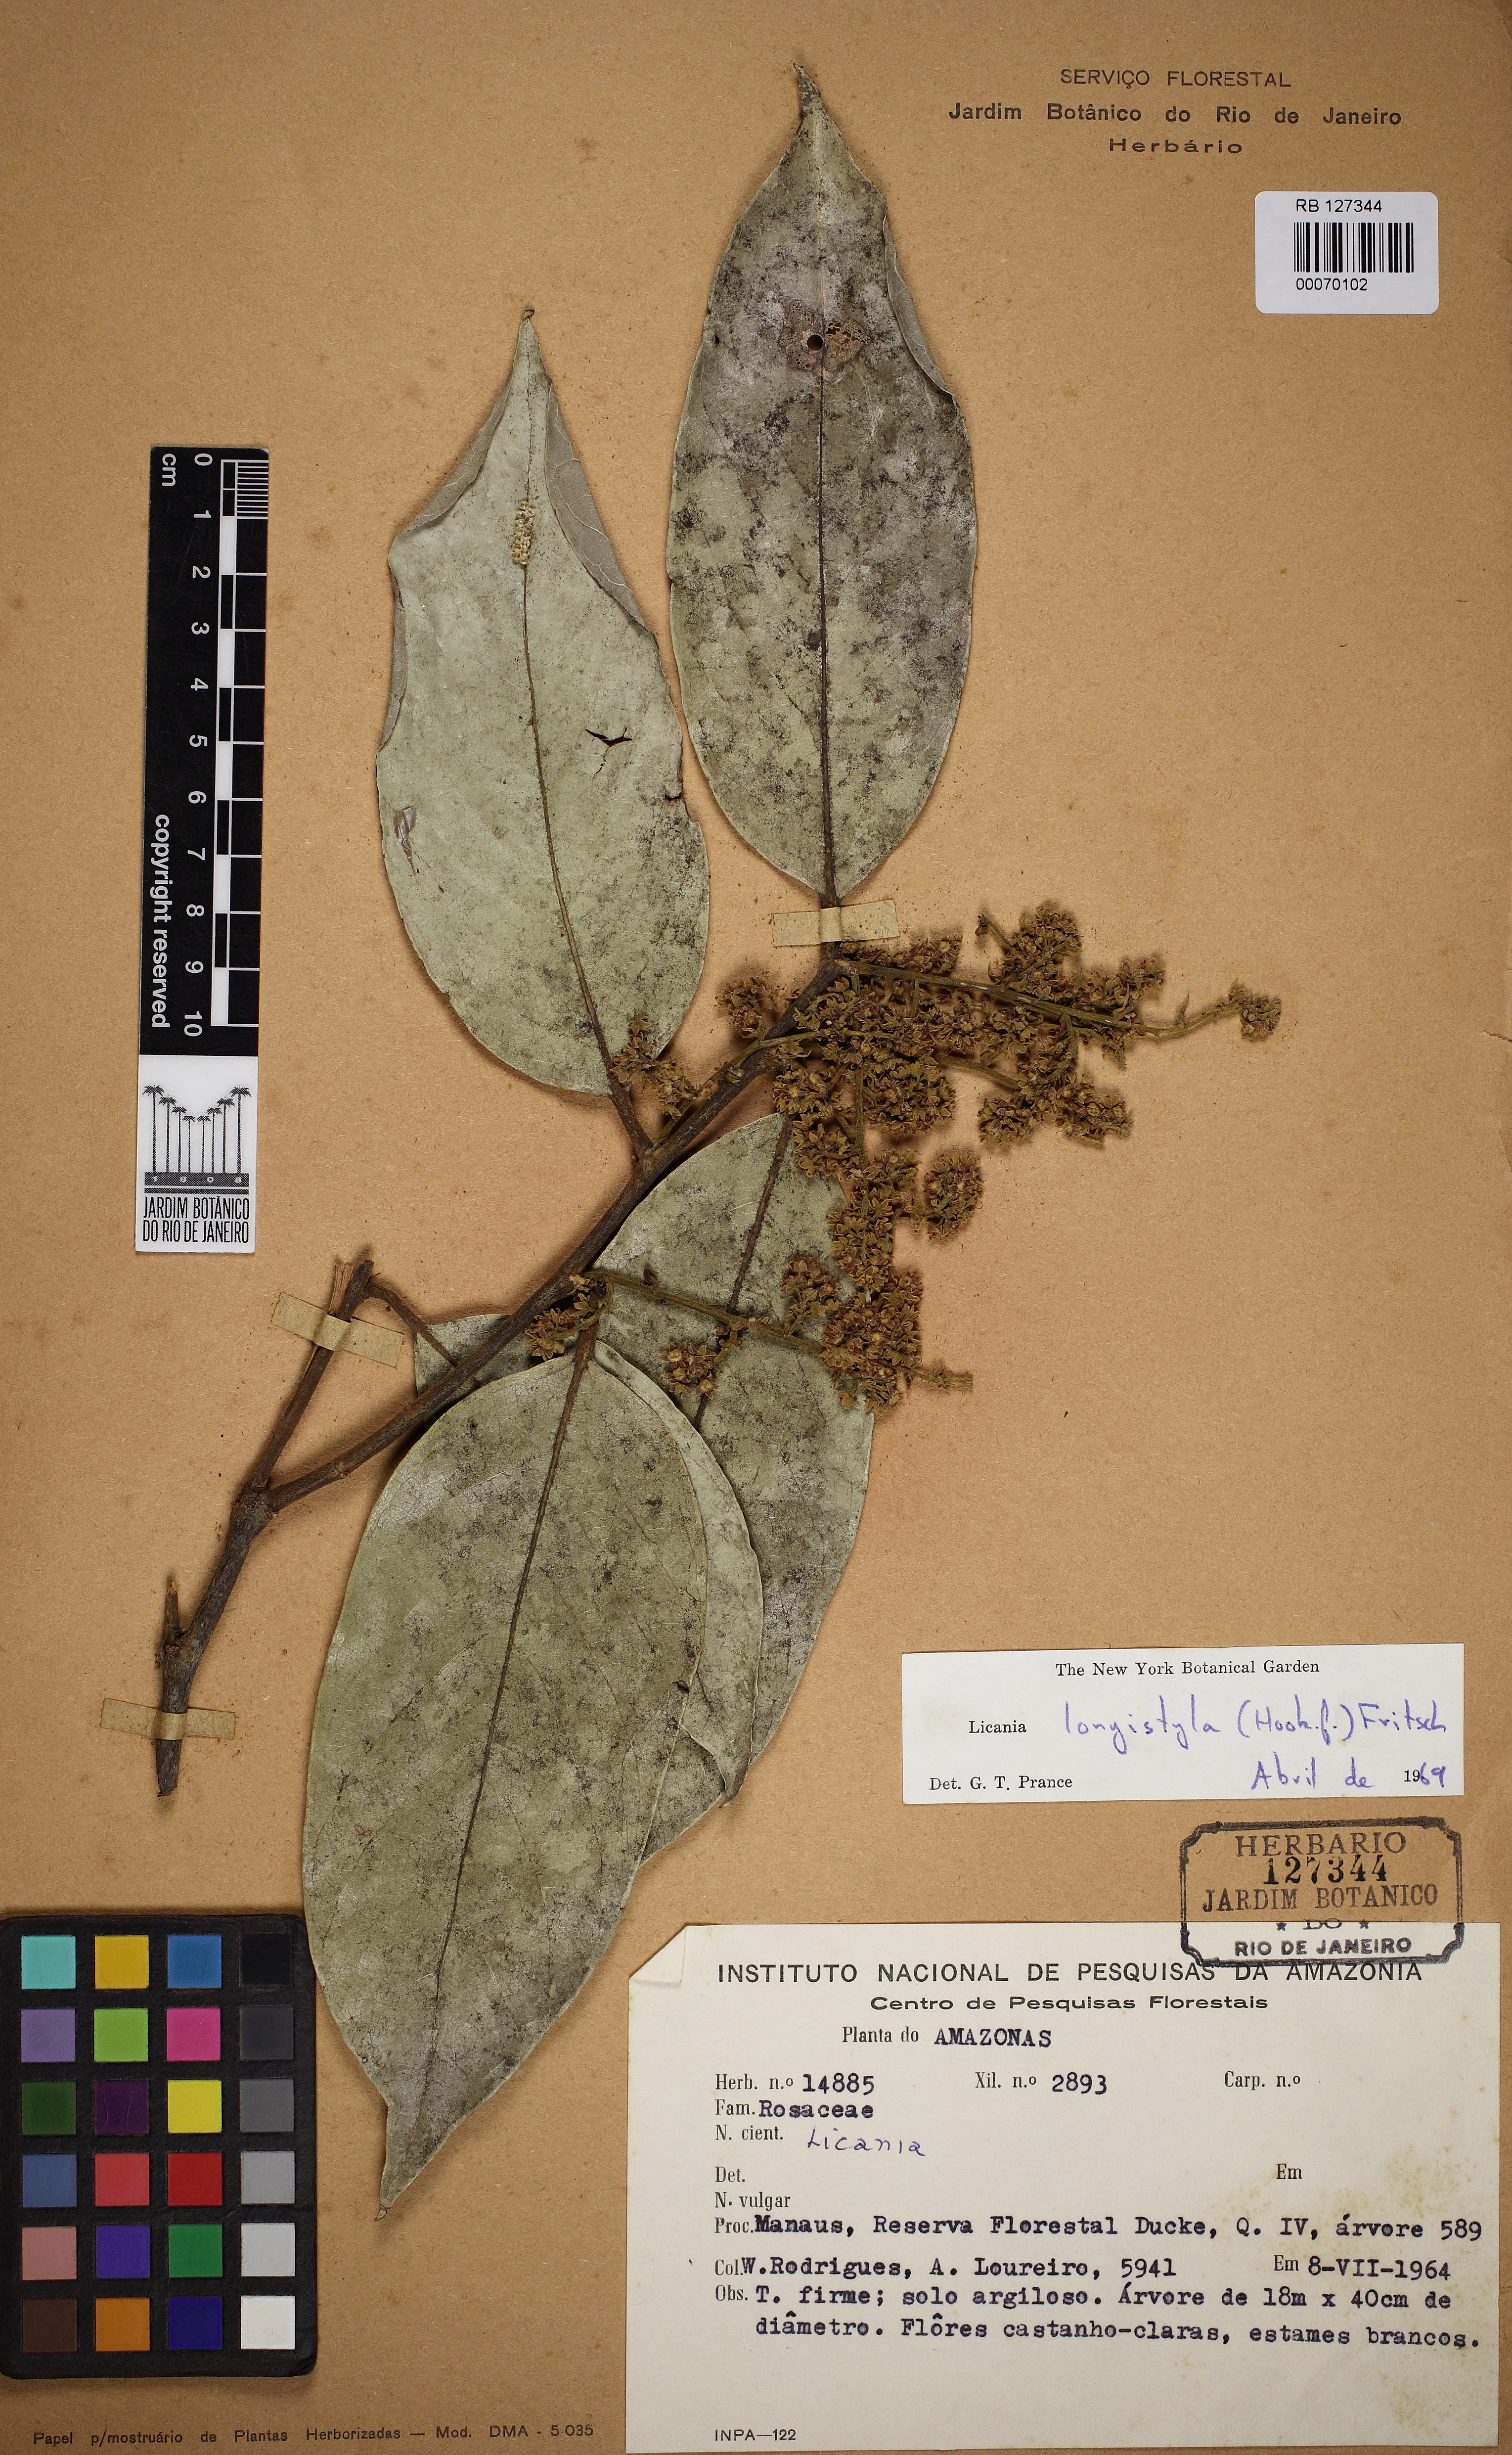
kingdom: Plantae
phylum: Tracheophyta
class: Magnoliopsida
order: Malpighiales
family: Chrysobalanaceae
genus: Leptobalanus
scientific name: Leptobalanus longistylus
